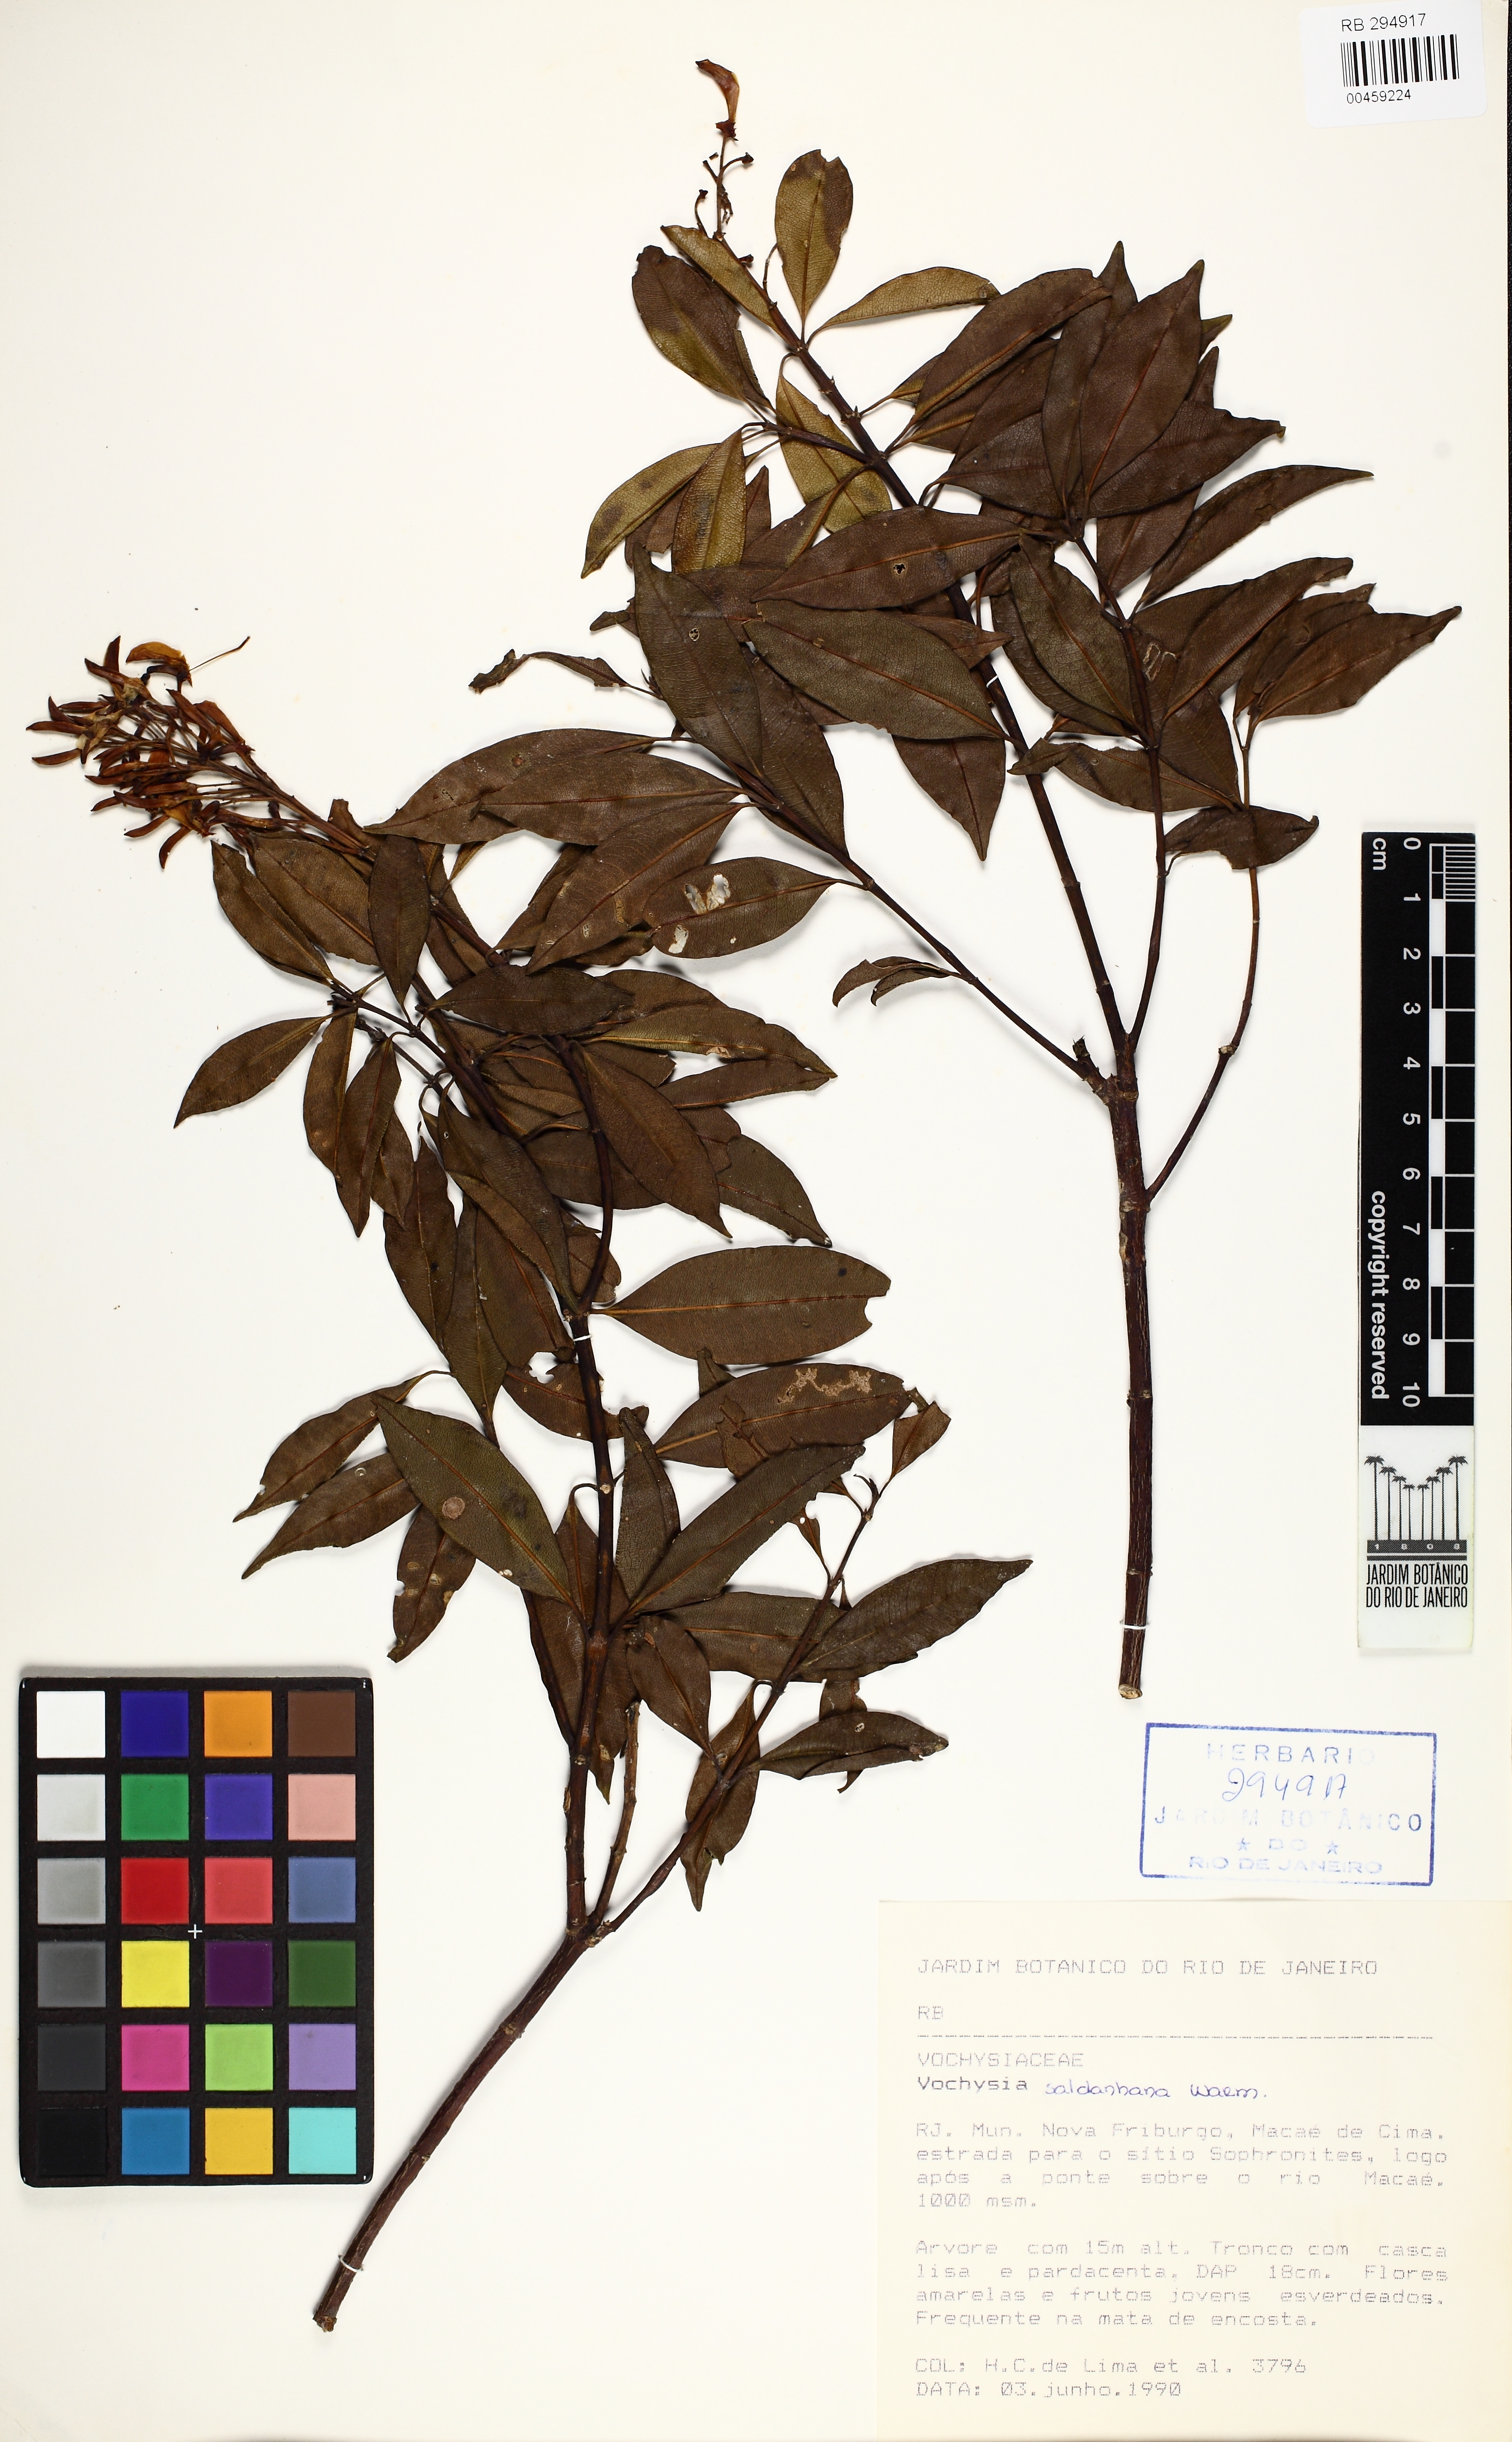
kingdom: Plantae
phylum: Tracheophyta
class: Magnoliopsida
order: Myrtales
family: Vochysiaceae
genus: Vochysia
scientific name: Vochysia saldanhana
